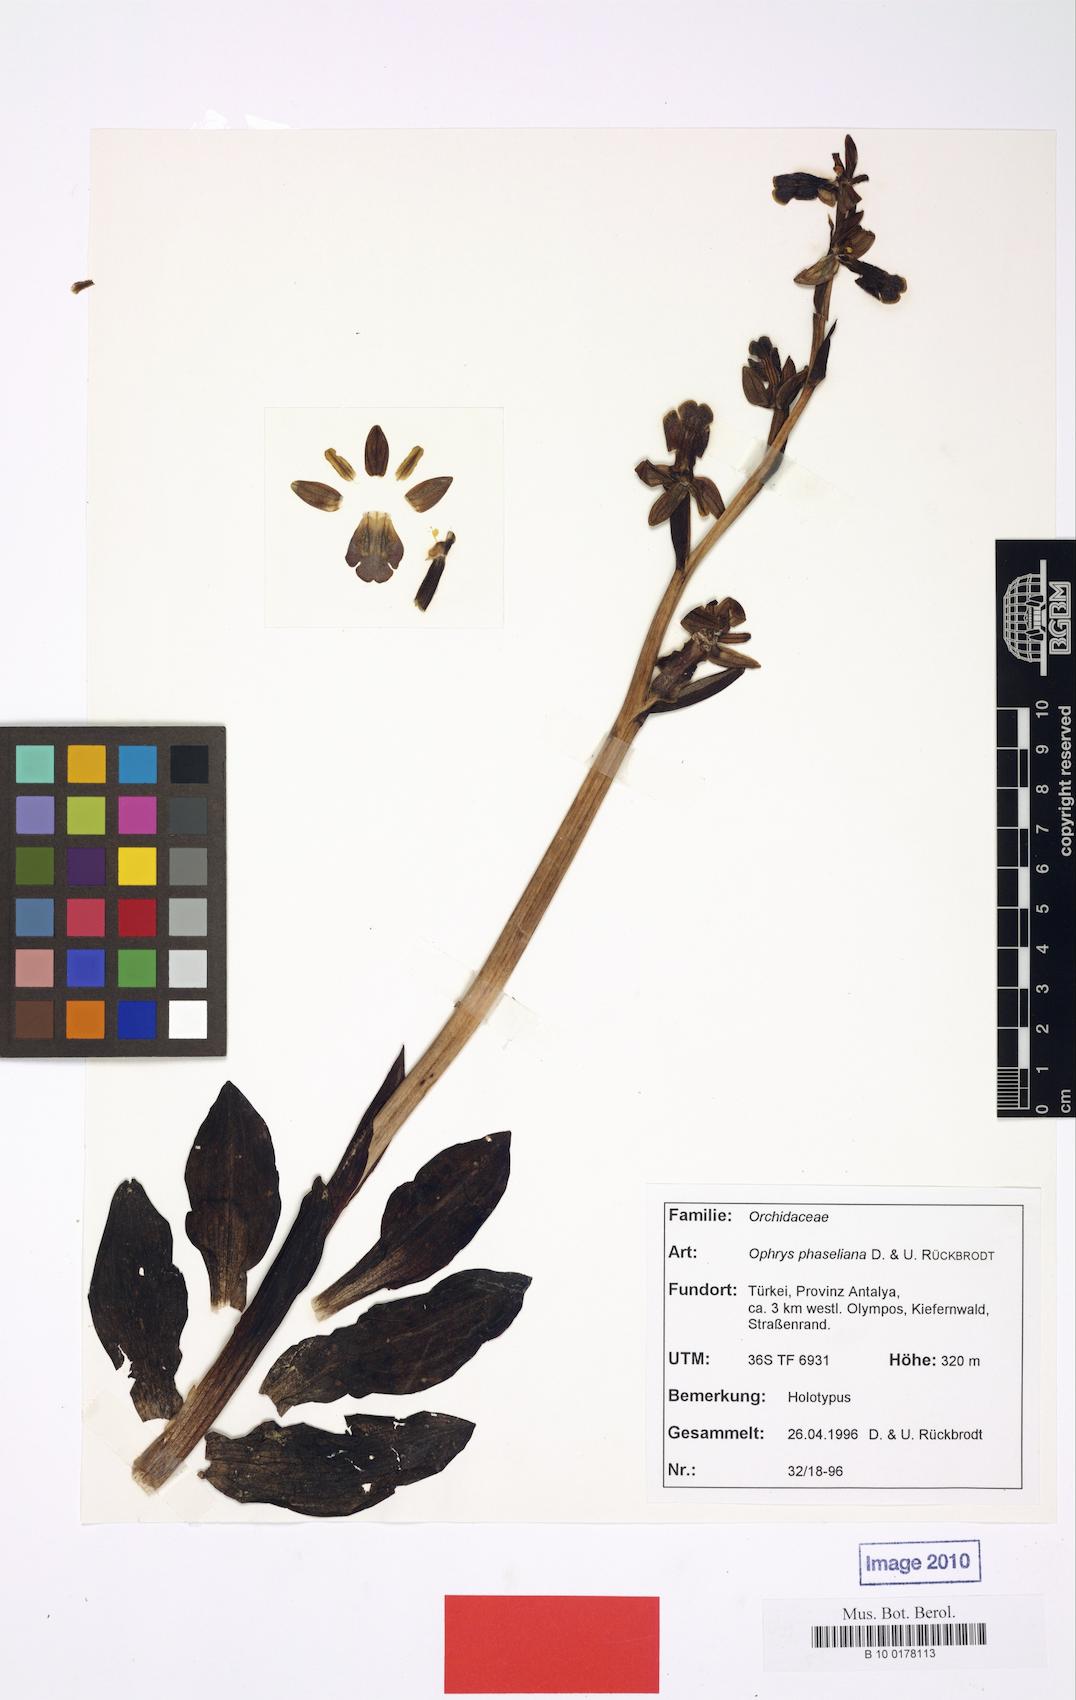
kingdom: Plantae
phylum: Tracheophyta
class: Liliopsida
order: Asparagales
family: Orchidaceae
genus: Ophrys
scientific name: Ophrys fusca
